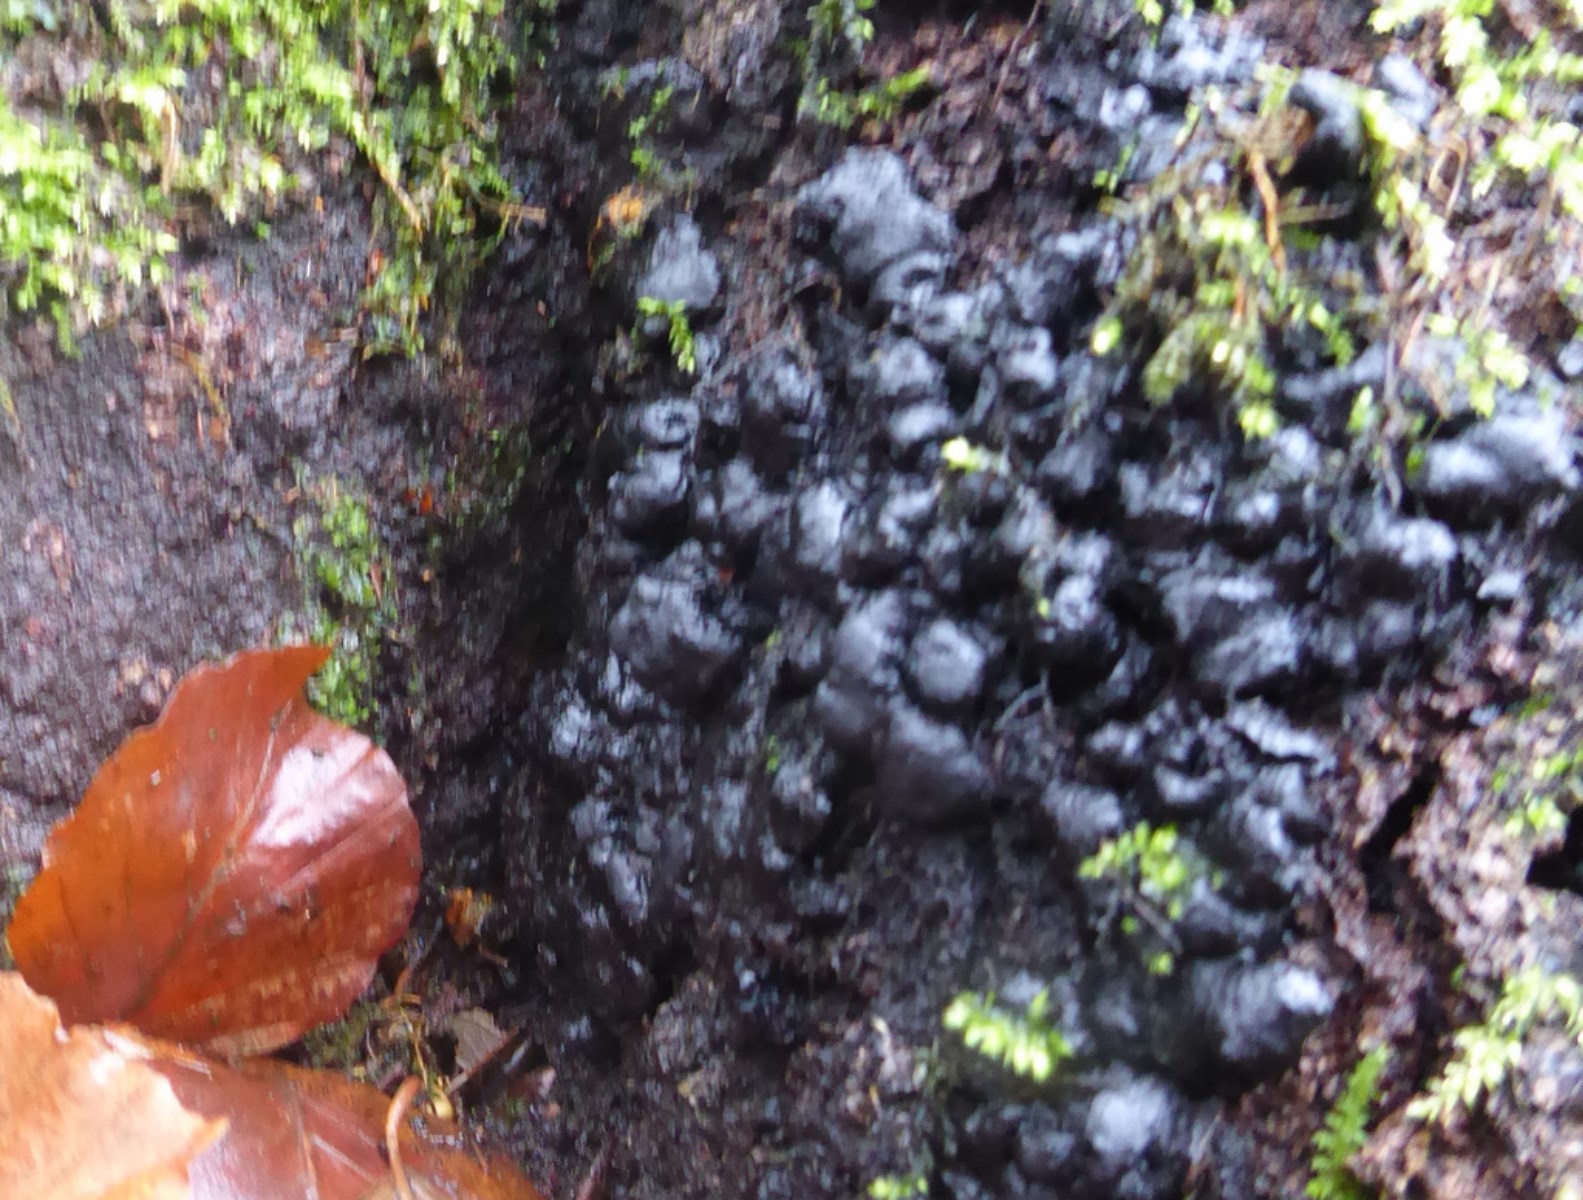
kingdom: Fungi
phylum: Ascomycota
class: Sordariomycetes
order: Xylariales
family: Xylariaceae
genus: Kretzschmaria
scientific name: Kretzschmaria deusta
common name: stor kulsvamp
